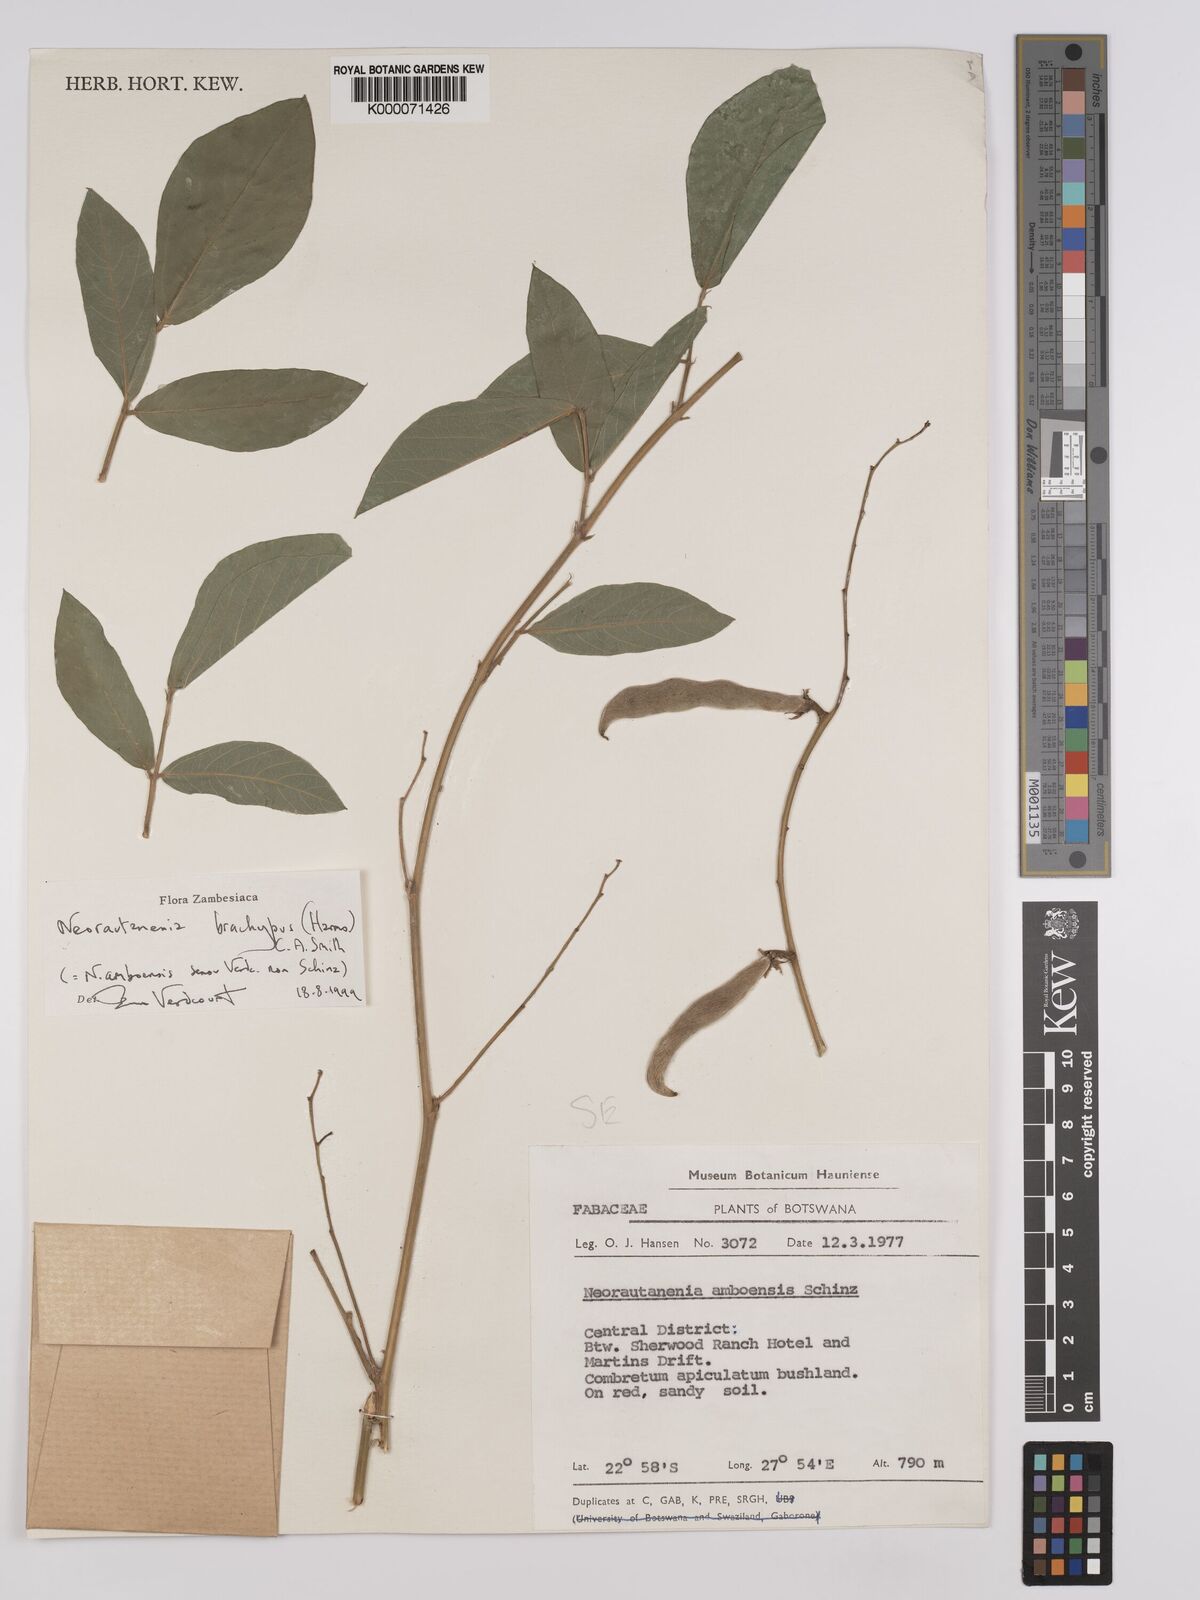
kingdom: Plantae
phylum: Tracheophyta
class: Magnoliopsida
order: Fabales
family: Fabaceae
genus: Neorautanenia
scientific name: Neorautanenia
